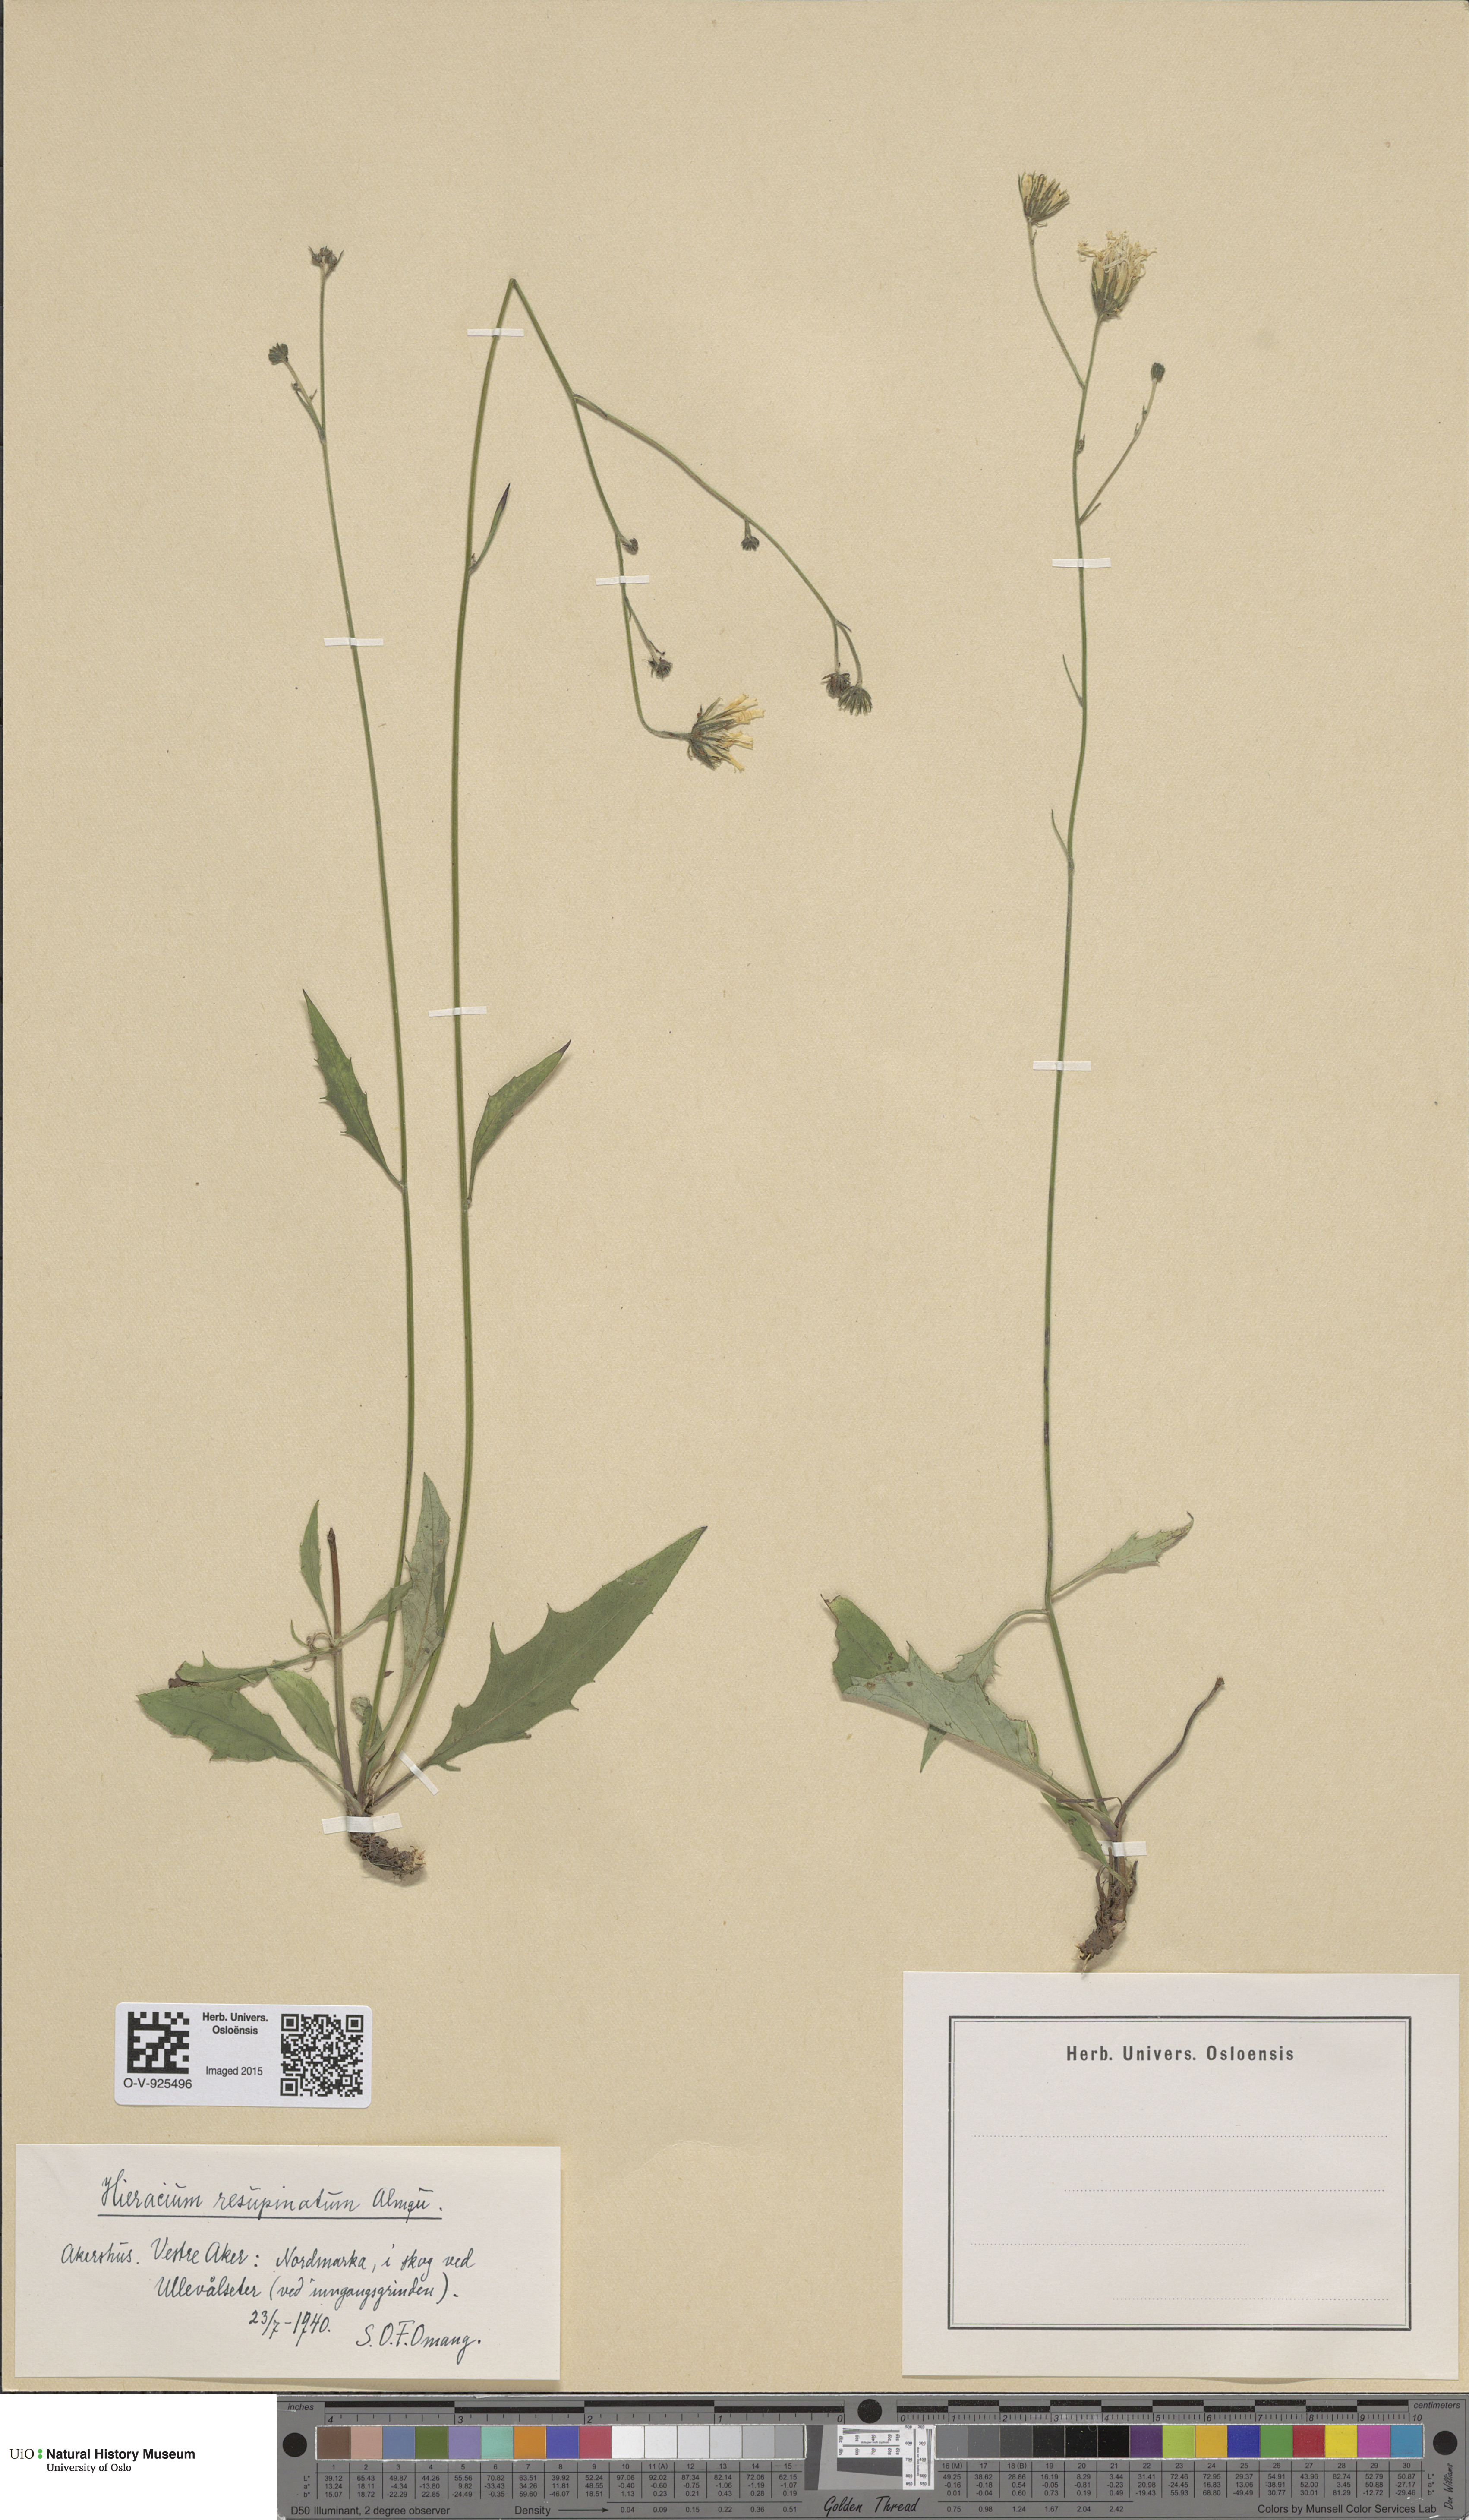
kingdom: Plantae
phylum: Tracheophyta
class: Magnoliopsida
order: Asterales
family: Asteraceae
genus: Hieracium
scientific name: Hieracium resupinatum
